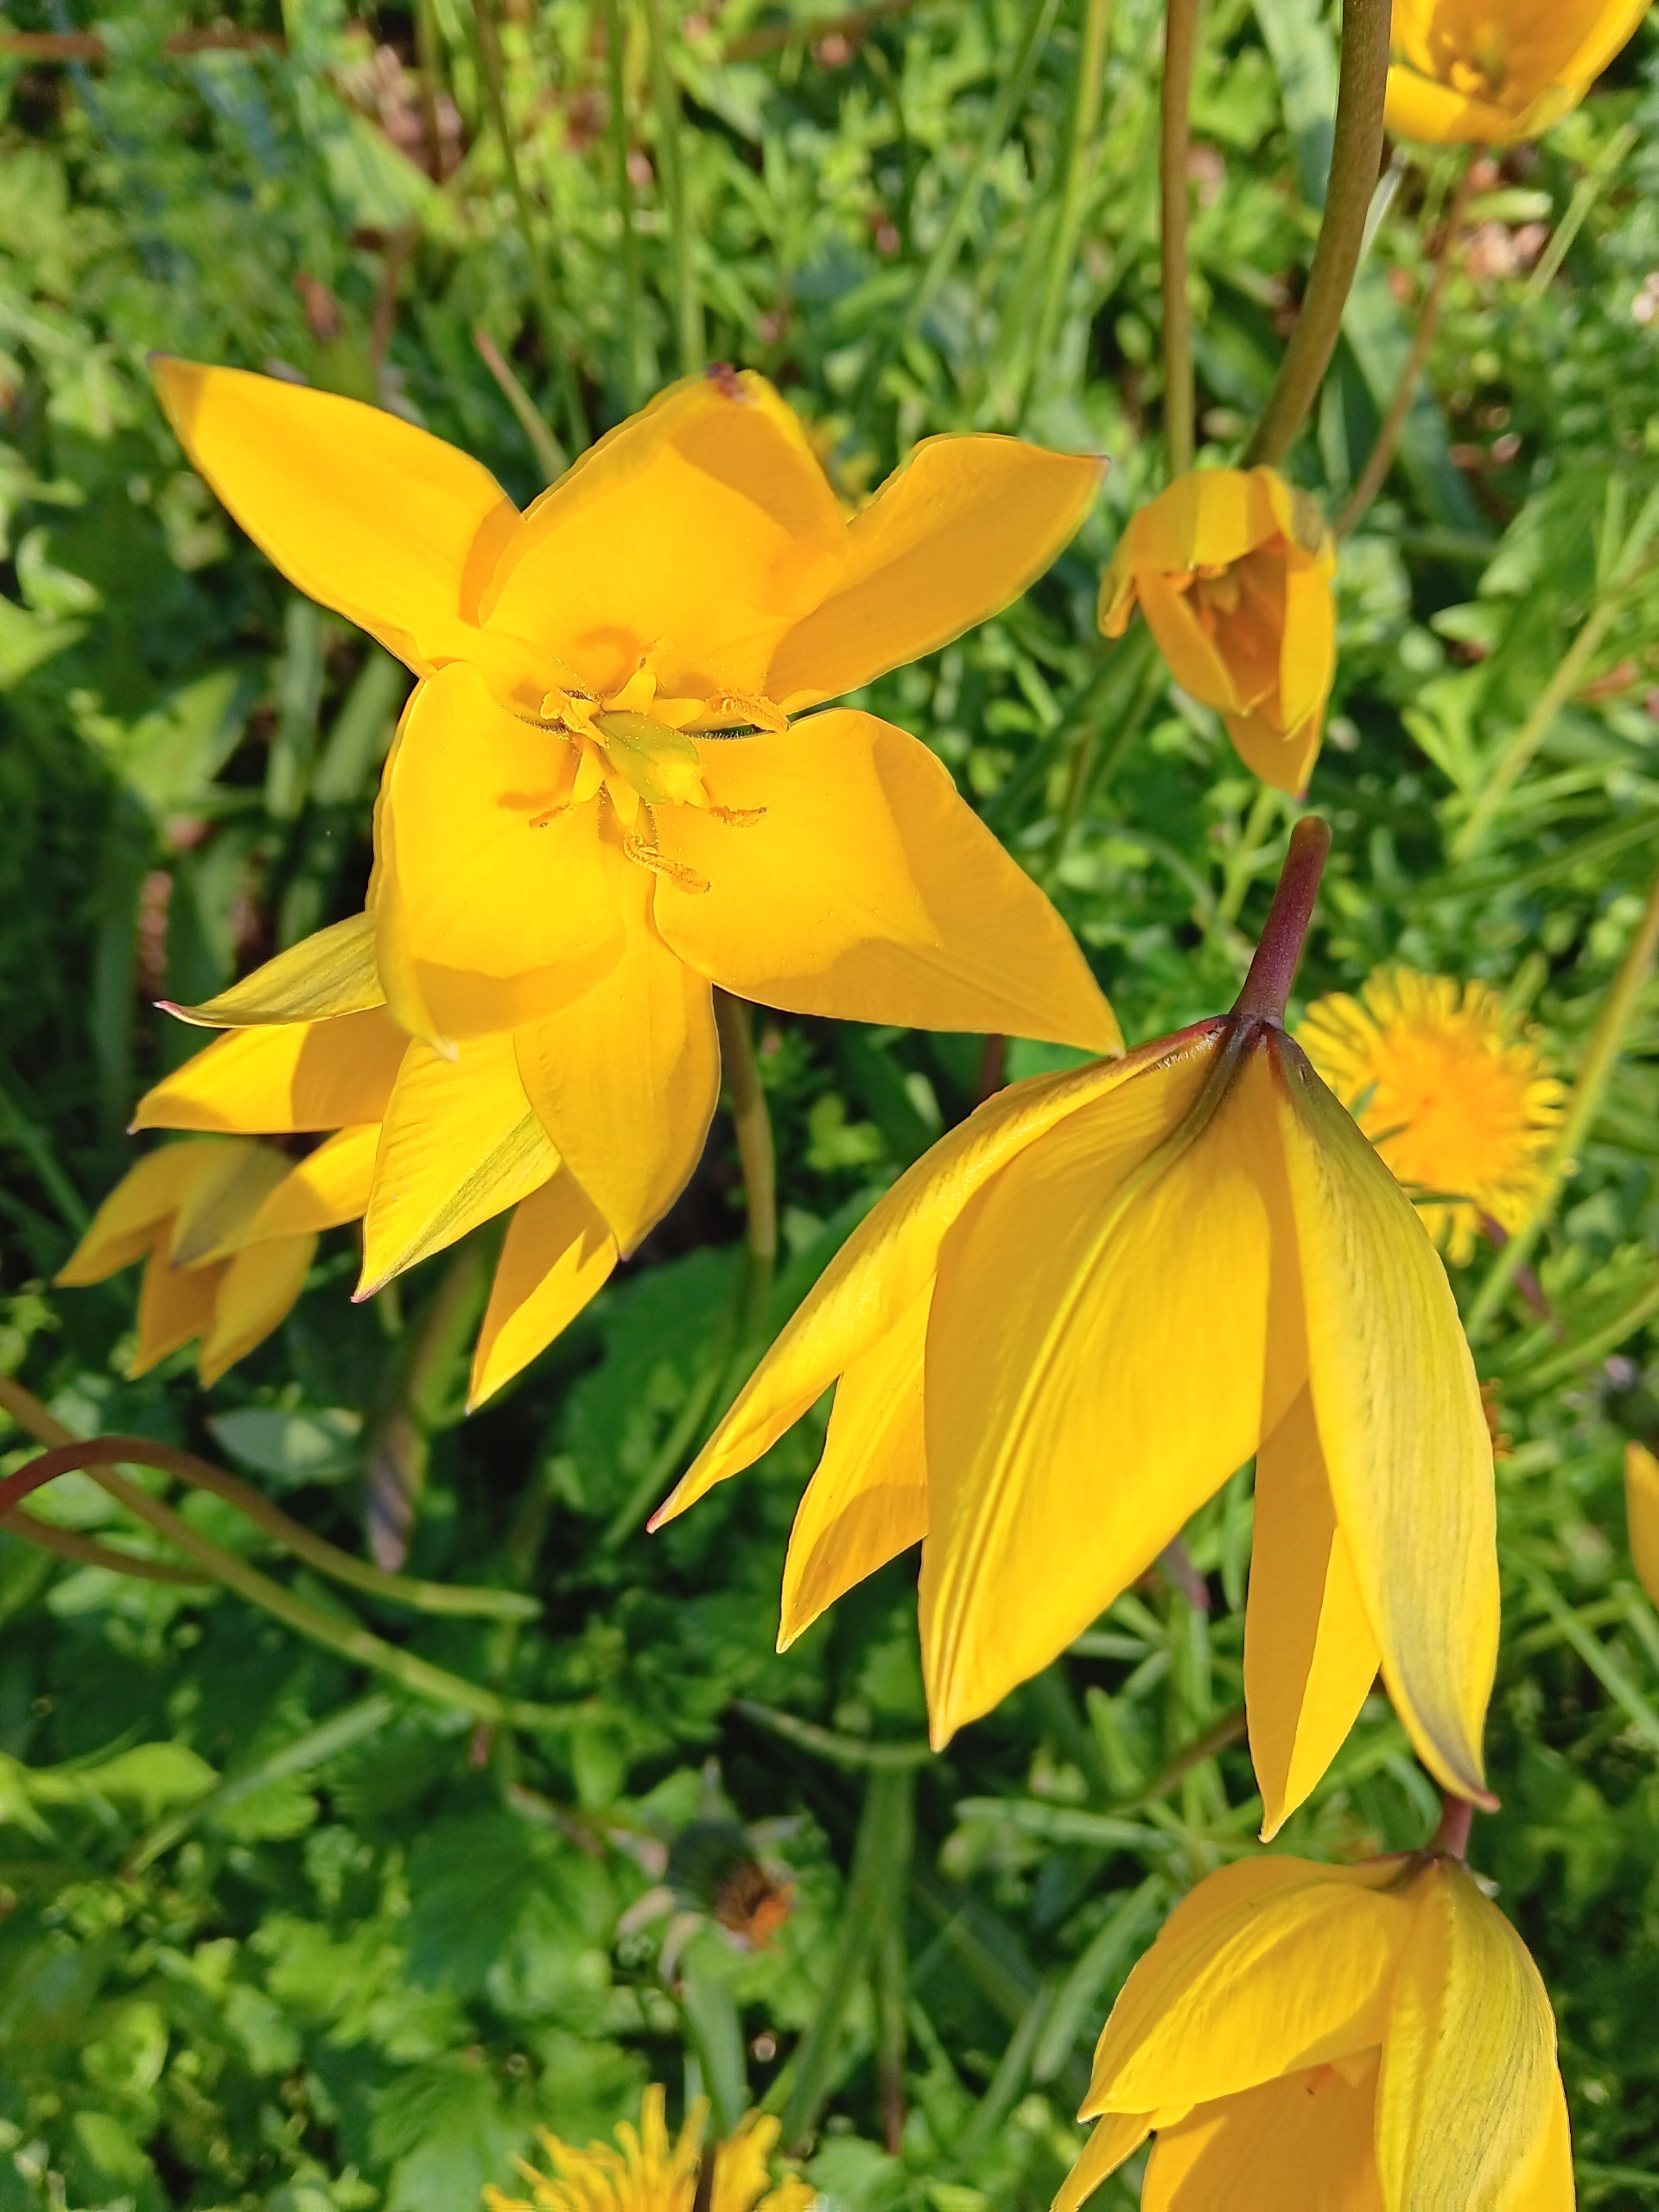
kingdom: Plantae
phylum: Tracheophyta
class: Liliopsida
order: Liliales
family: Liliaceae
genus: Tulipa
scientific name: Tulipa sylvestris
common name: Vild tulipan
